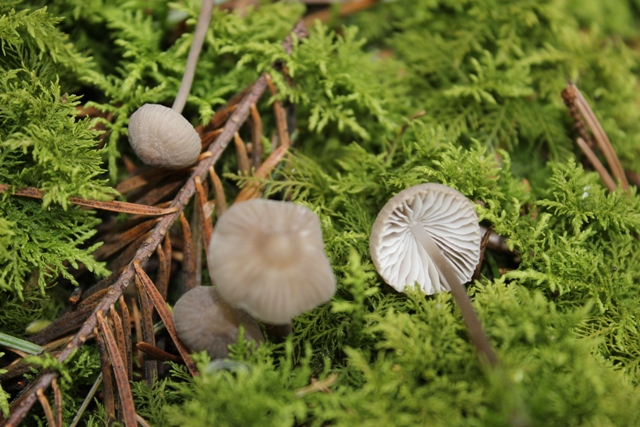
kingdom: Fungi
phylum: Basidiomycota
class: Agaricomycetes
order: Agaricales
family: Mycenaceae
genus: Mycena
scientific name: Mycena abramsii
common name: sommer-huesvamp
